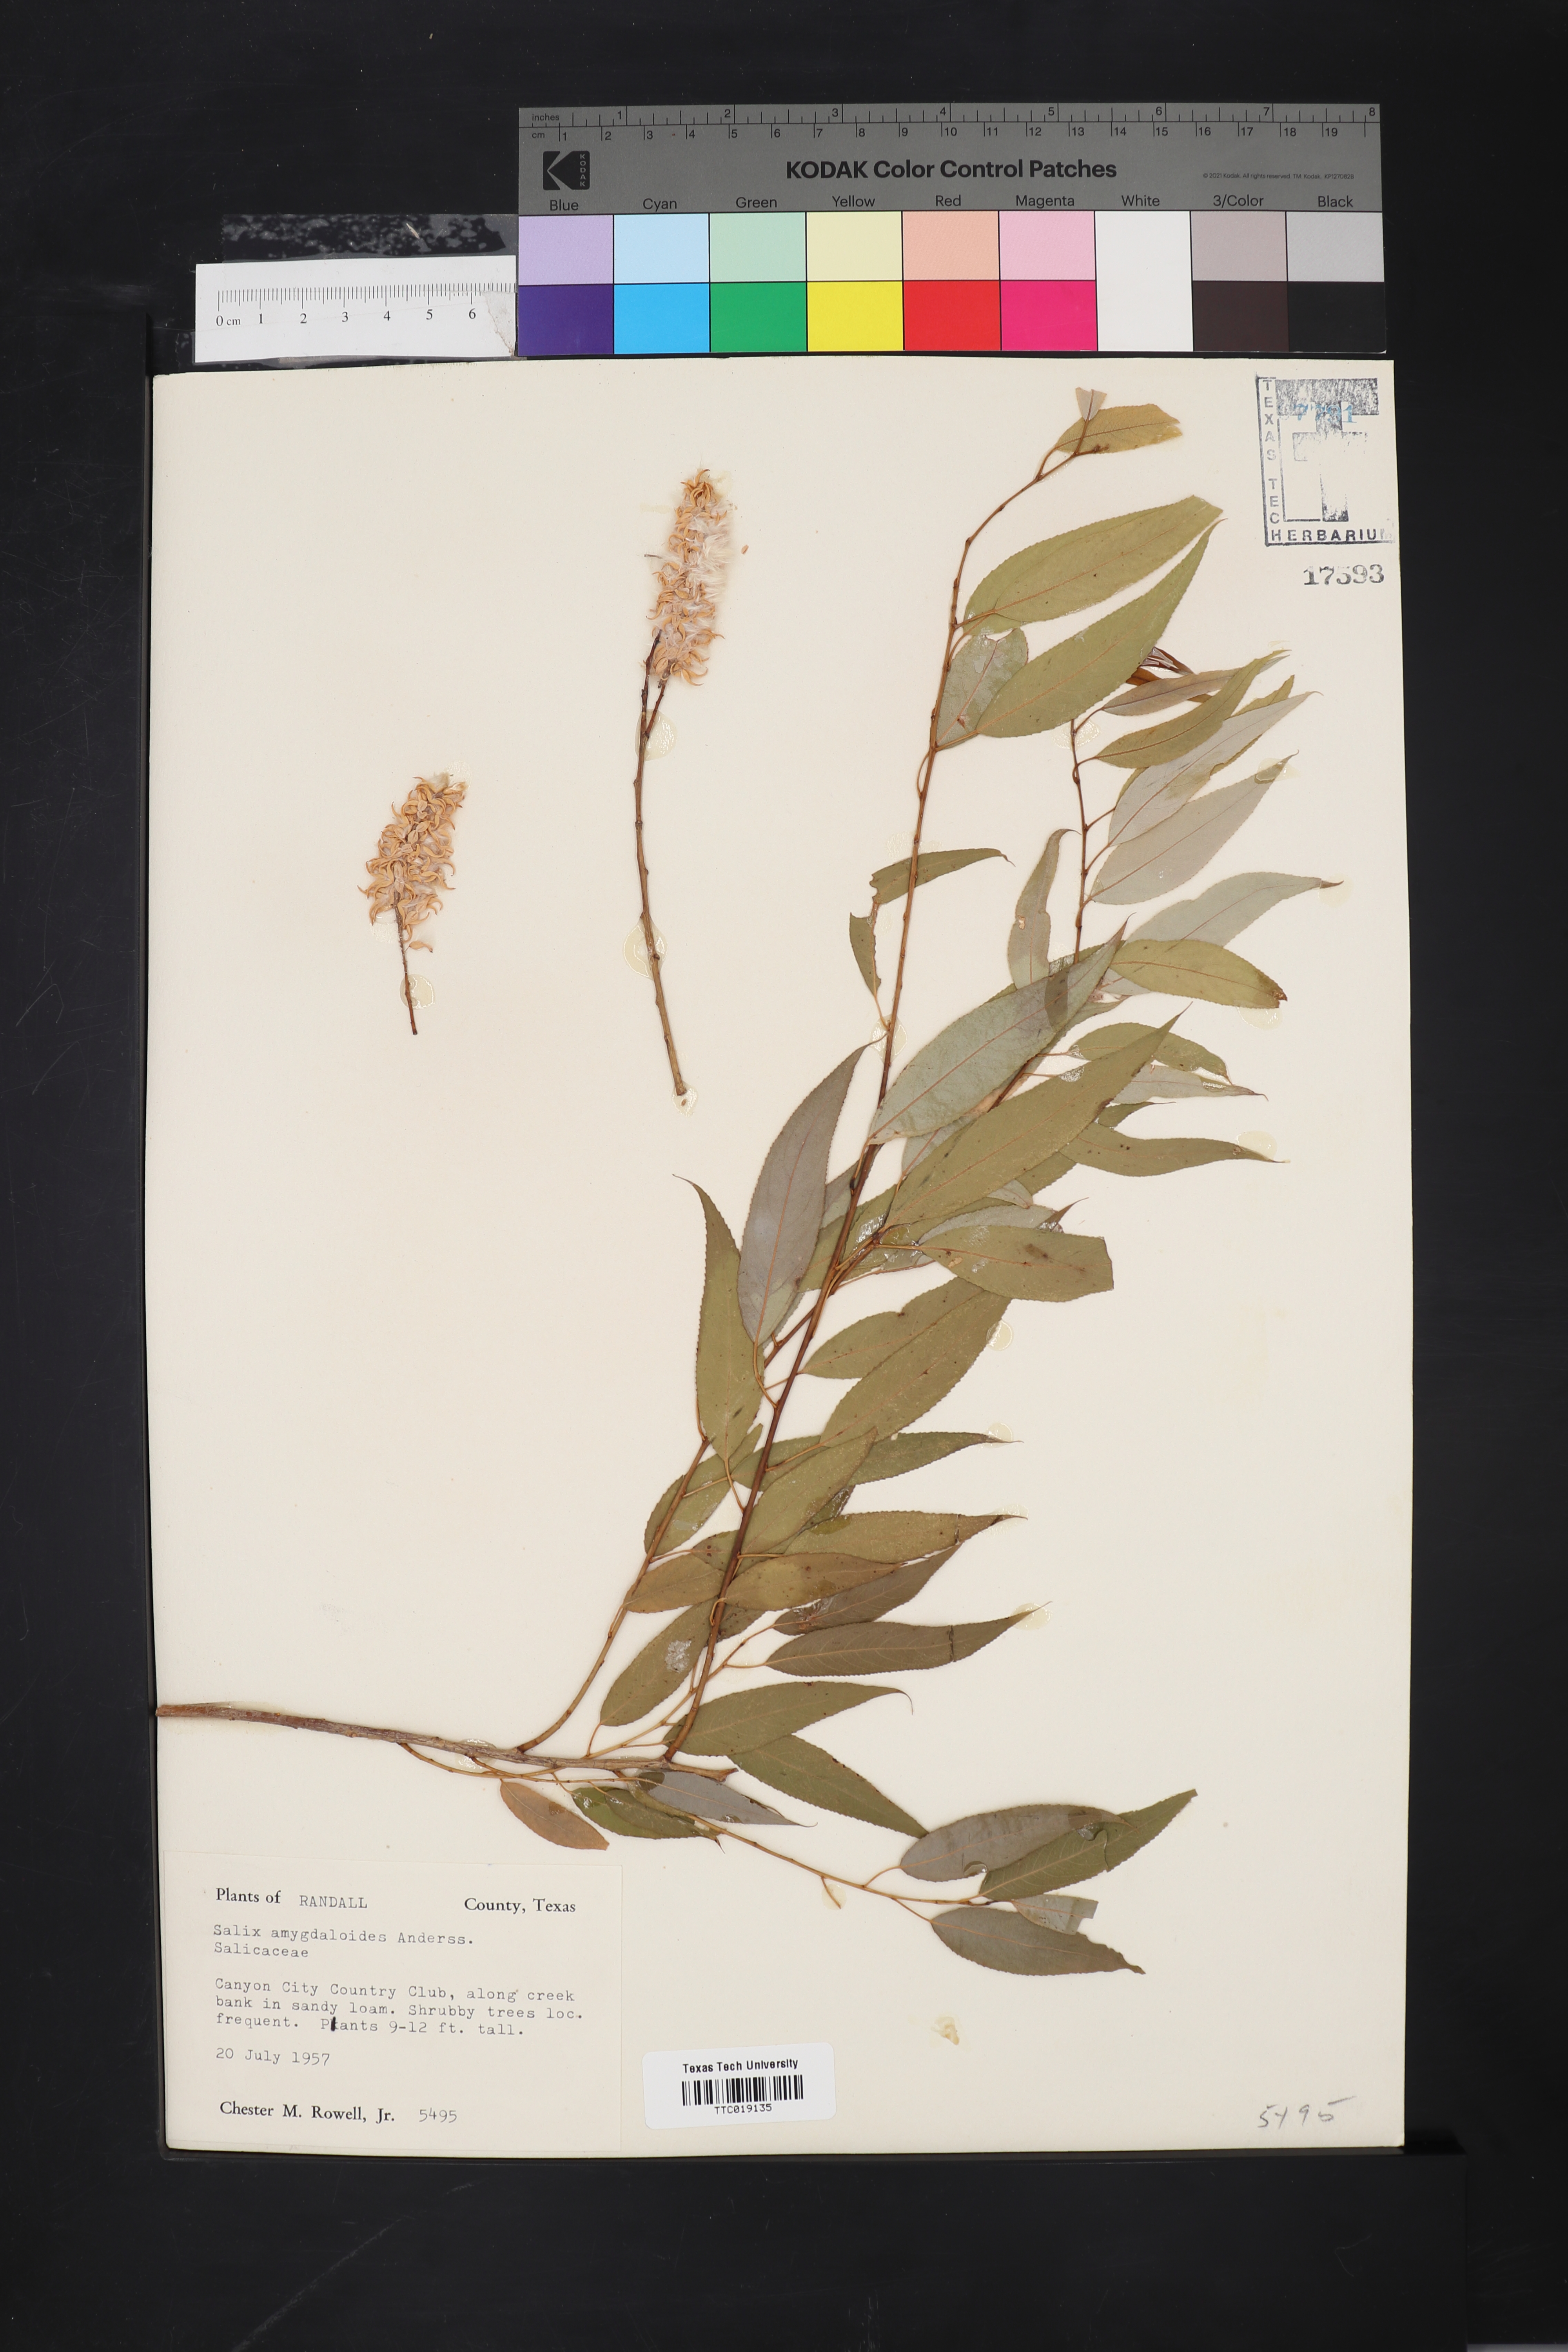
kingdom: Plantae
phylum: Tracheophyta
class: Magnoliopsida
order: Malpighiales
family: Salicaceae
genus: Salix
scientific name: Salix amygdaloides
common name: Peach leaf willow
